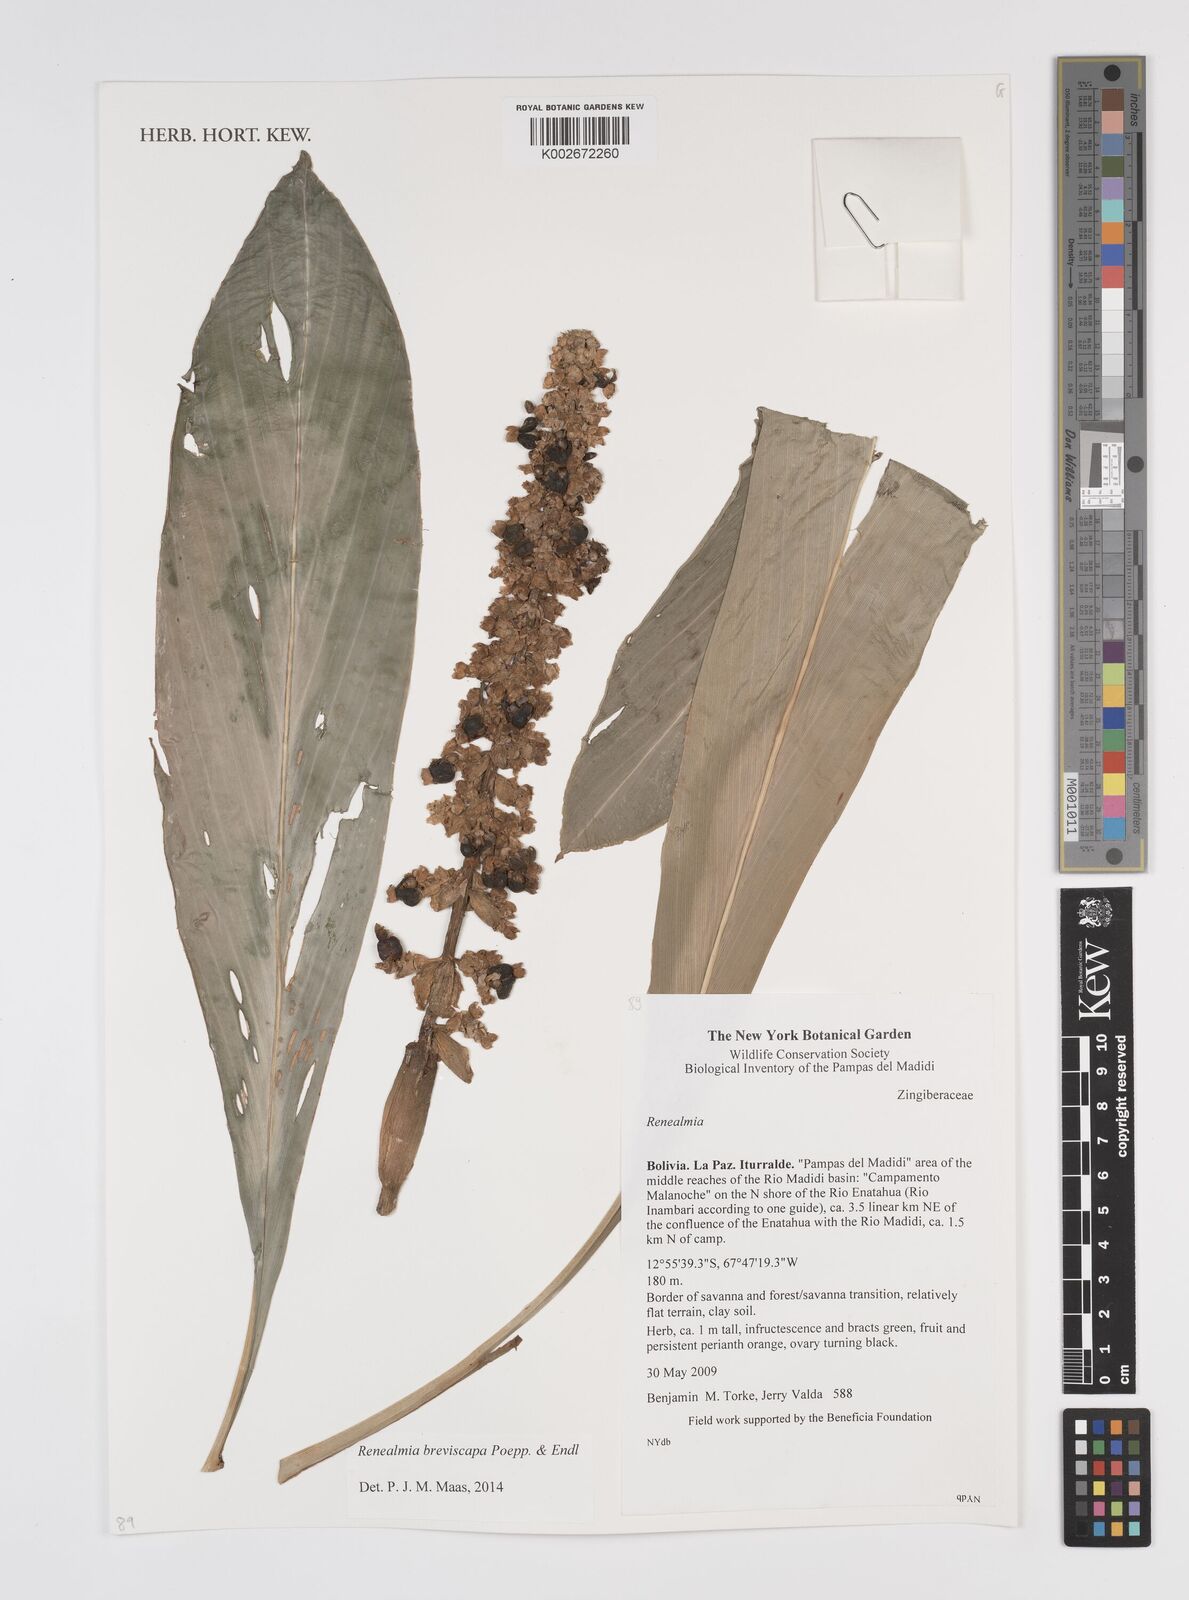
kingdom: Plantae
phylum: Tracheophyta
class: Liliopsida
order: Zingiberales
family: Zingiberaceae
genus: Renealmia
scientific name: Renealmia breviscapa
